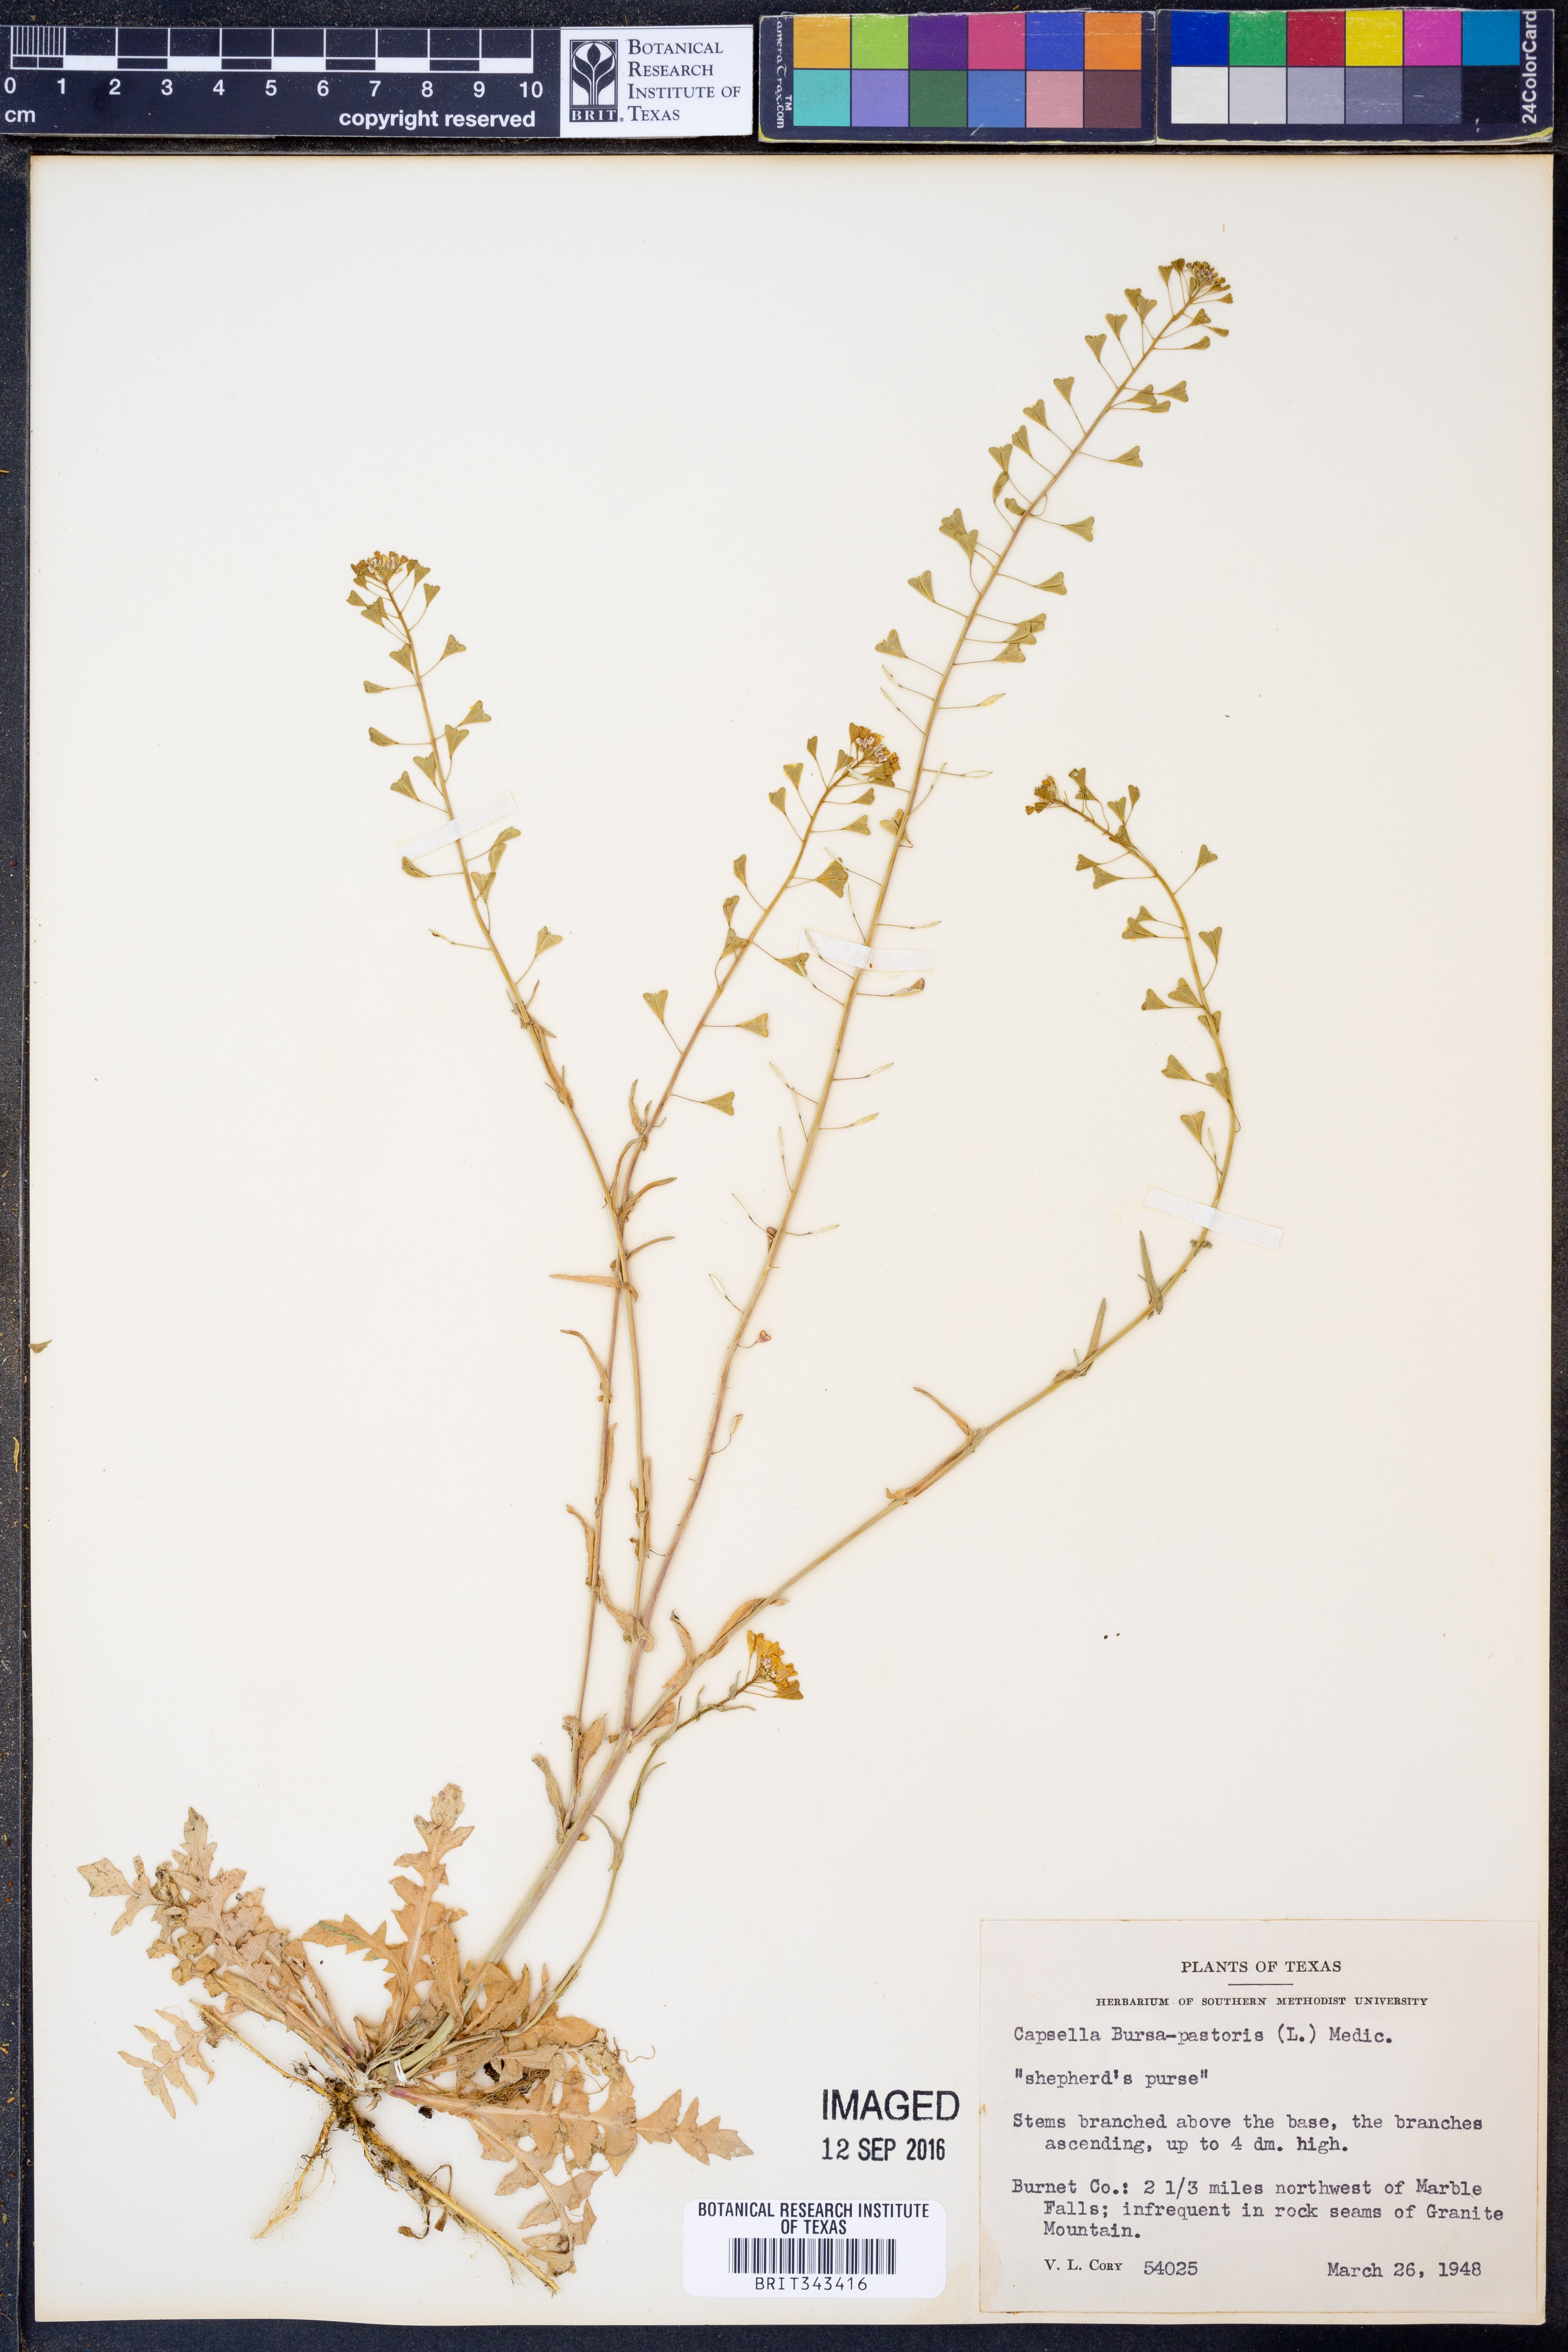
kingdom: Plantae
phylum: Tracheophyta
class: Magnoliopsida
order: Brassicales
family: Brassicaceae
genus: Capsella
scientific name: Capsella bursa-pastoris
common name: Shepherd's purse
